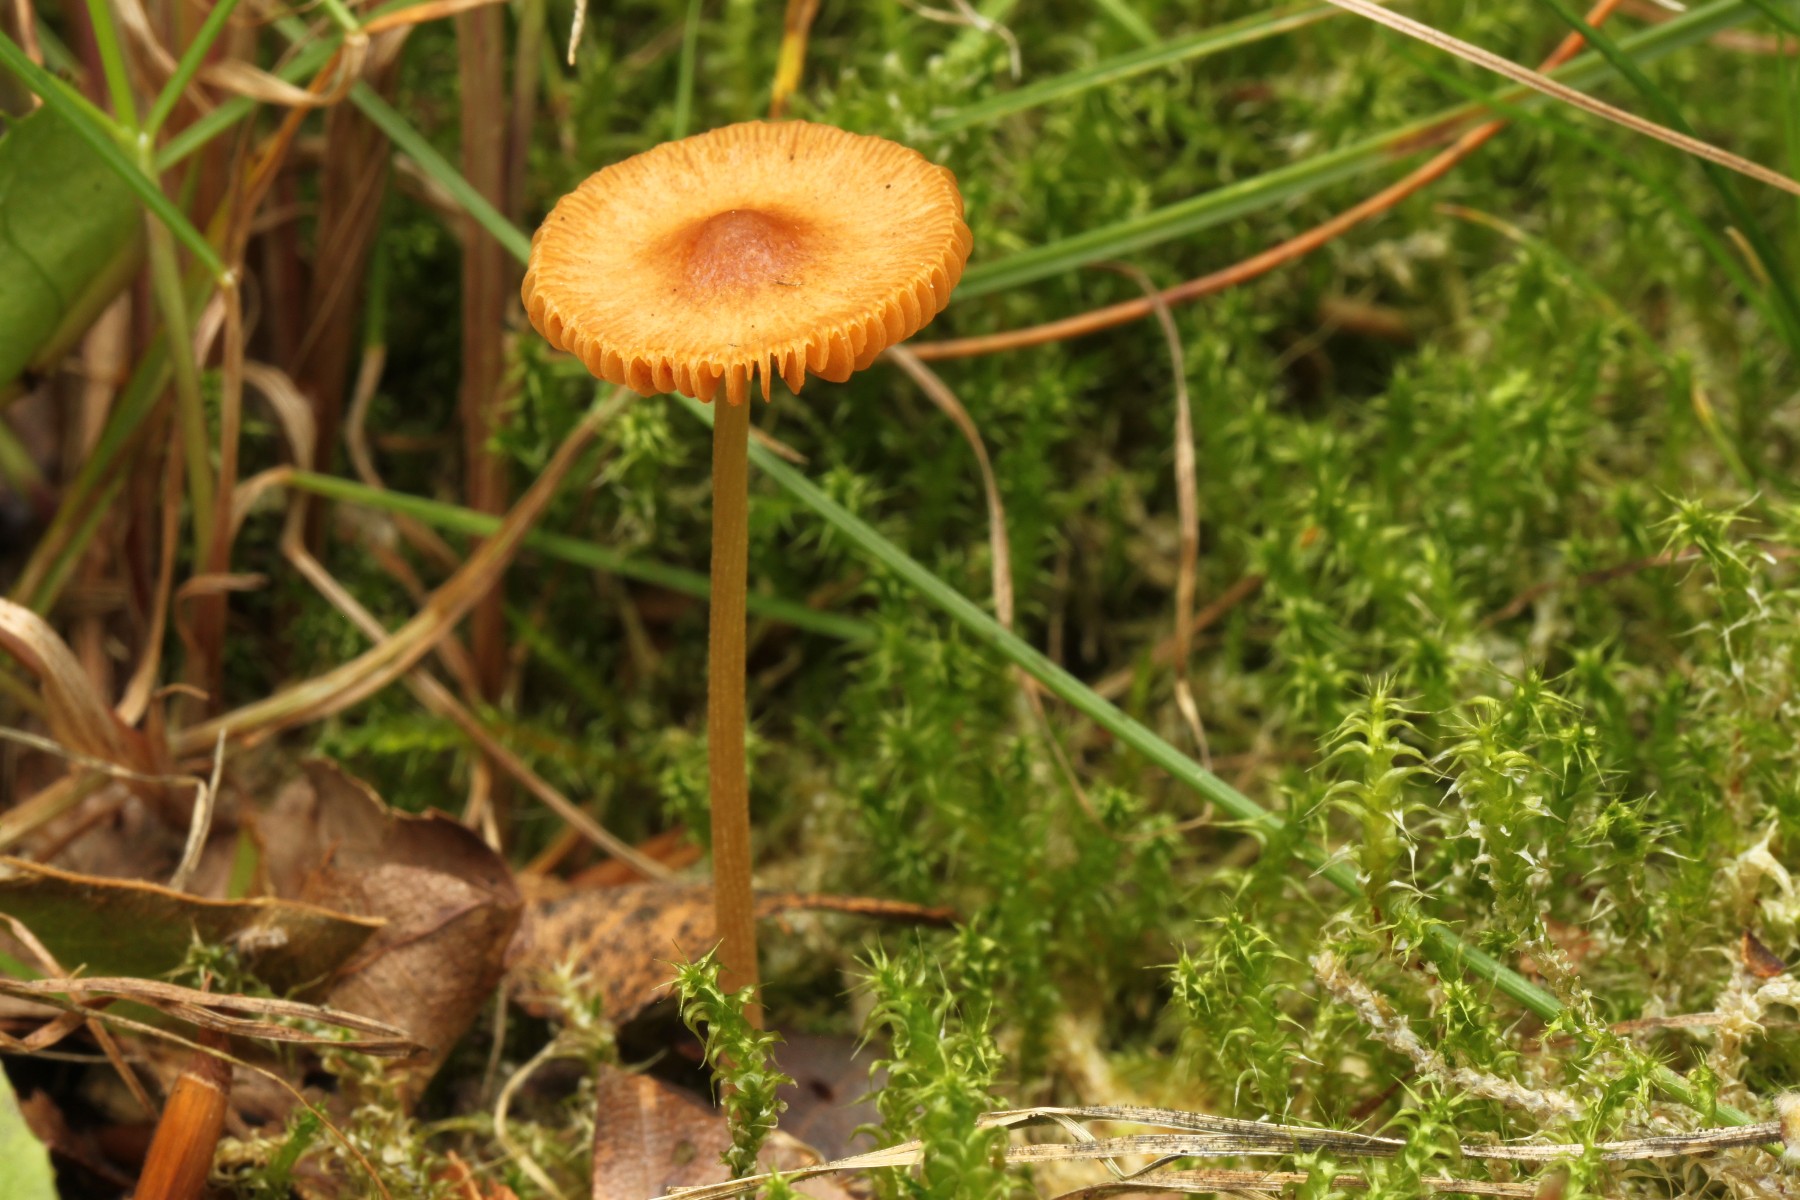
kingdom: Fungi
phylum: Basidiomycota
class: Agaricomycetes
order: Agaricales
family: Bolbitiaceae
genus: Conocybe
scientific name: Conocybe
